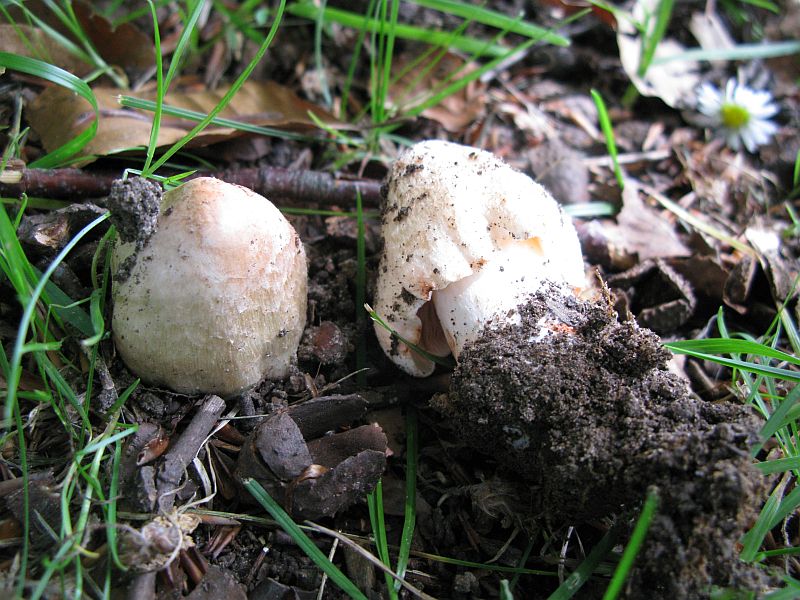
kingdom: Fungi
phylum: Basidiomycota
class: Agaricomycetes
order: Agaricales
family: Inocybaceae
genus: Inosperma
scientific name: Inosperma erubescens
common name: giftig trævlhat
